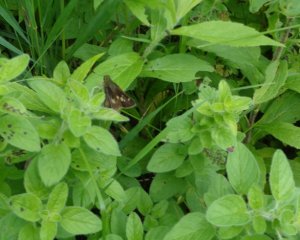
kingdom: Animalia
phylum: Arthropoda
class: Insecta
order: Lepidoptera
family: Hesperiidae
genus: Vernia
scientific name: Vernia verna
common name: Little Glassywing
